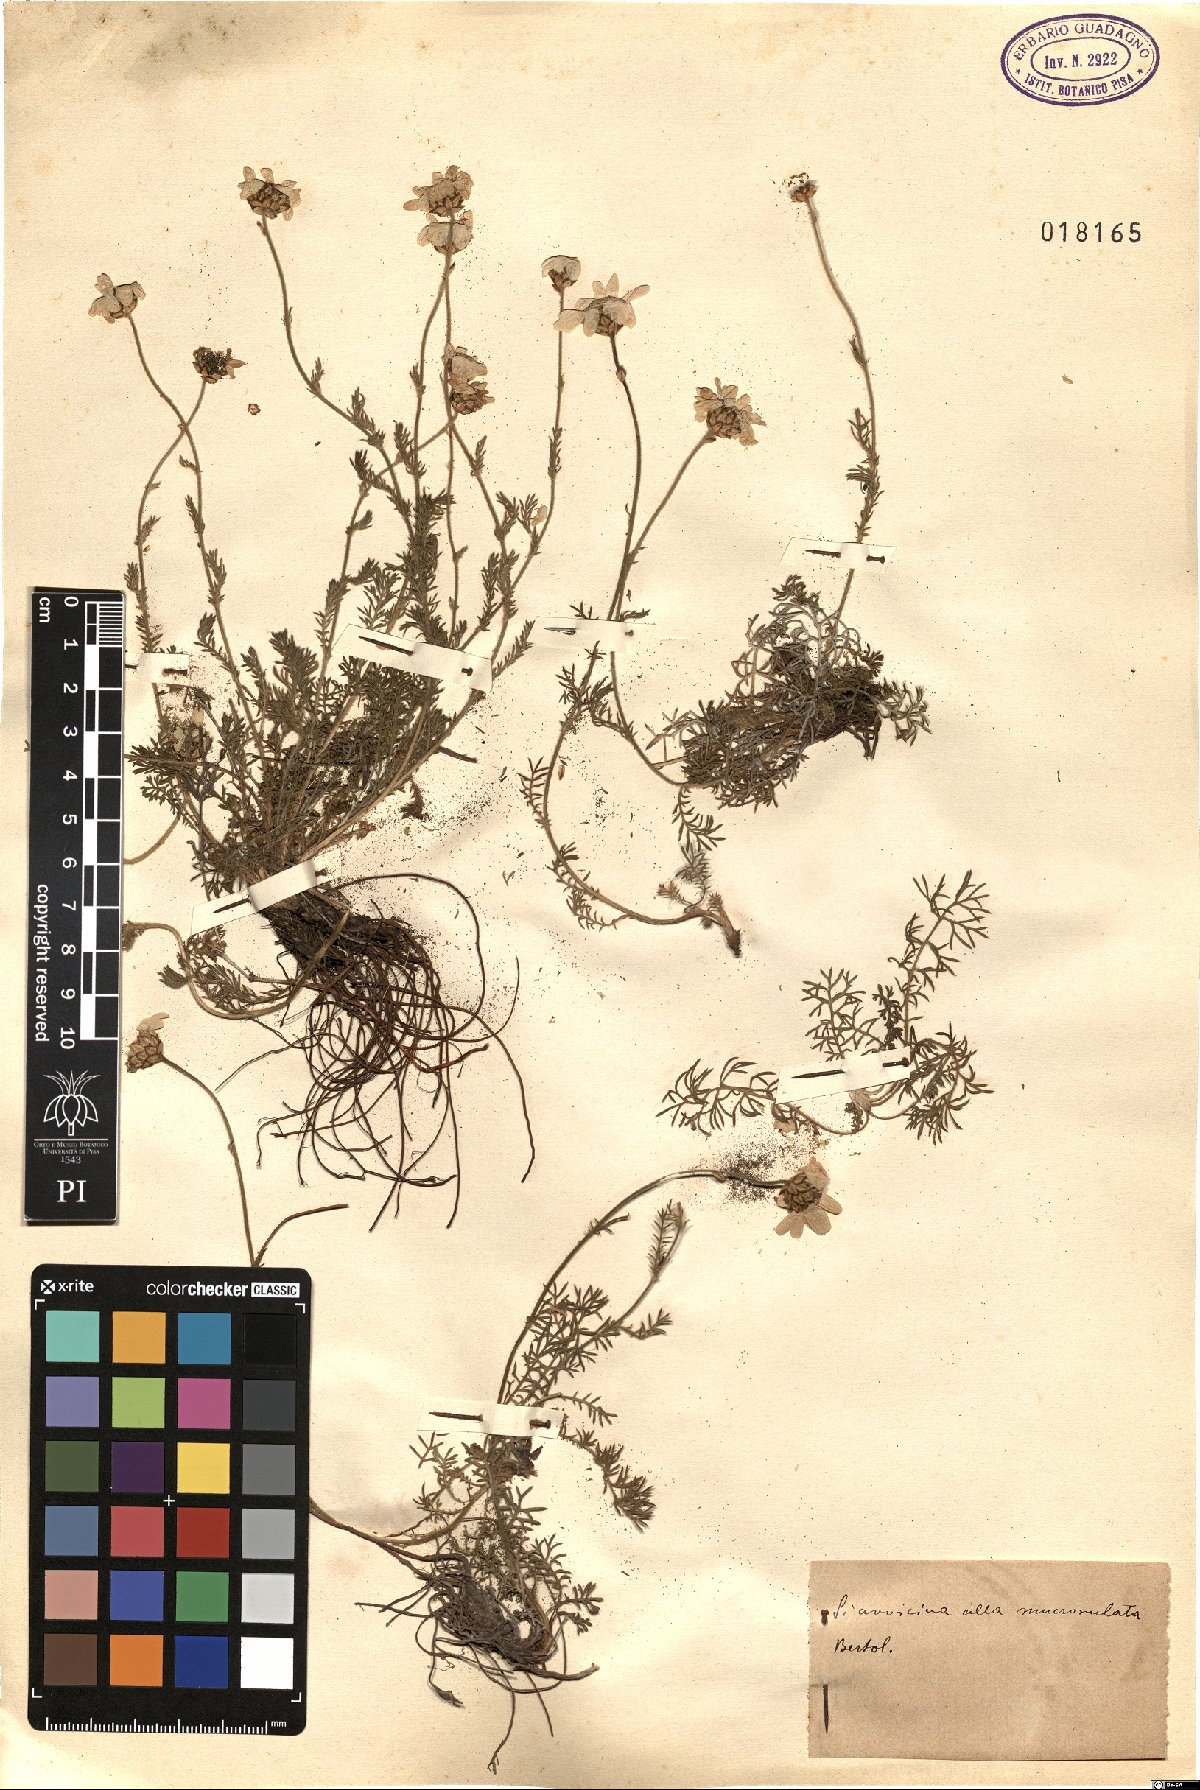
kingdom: Plantae
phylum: Tracheophyta
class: Magnoliopsida
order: Asterales
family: Asteraceae
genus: Achillea
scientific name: Achillea barrelieri
